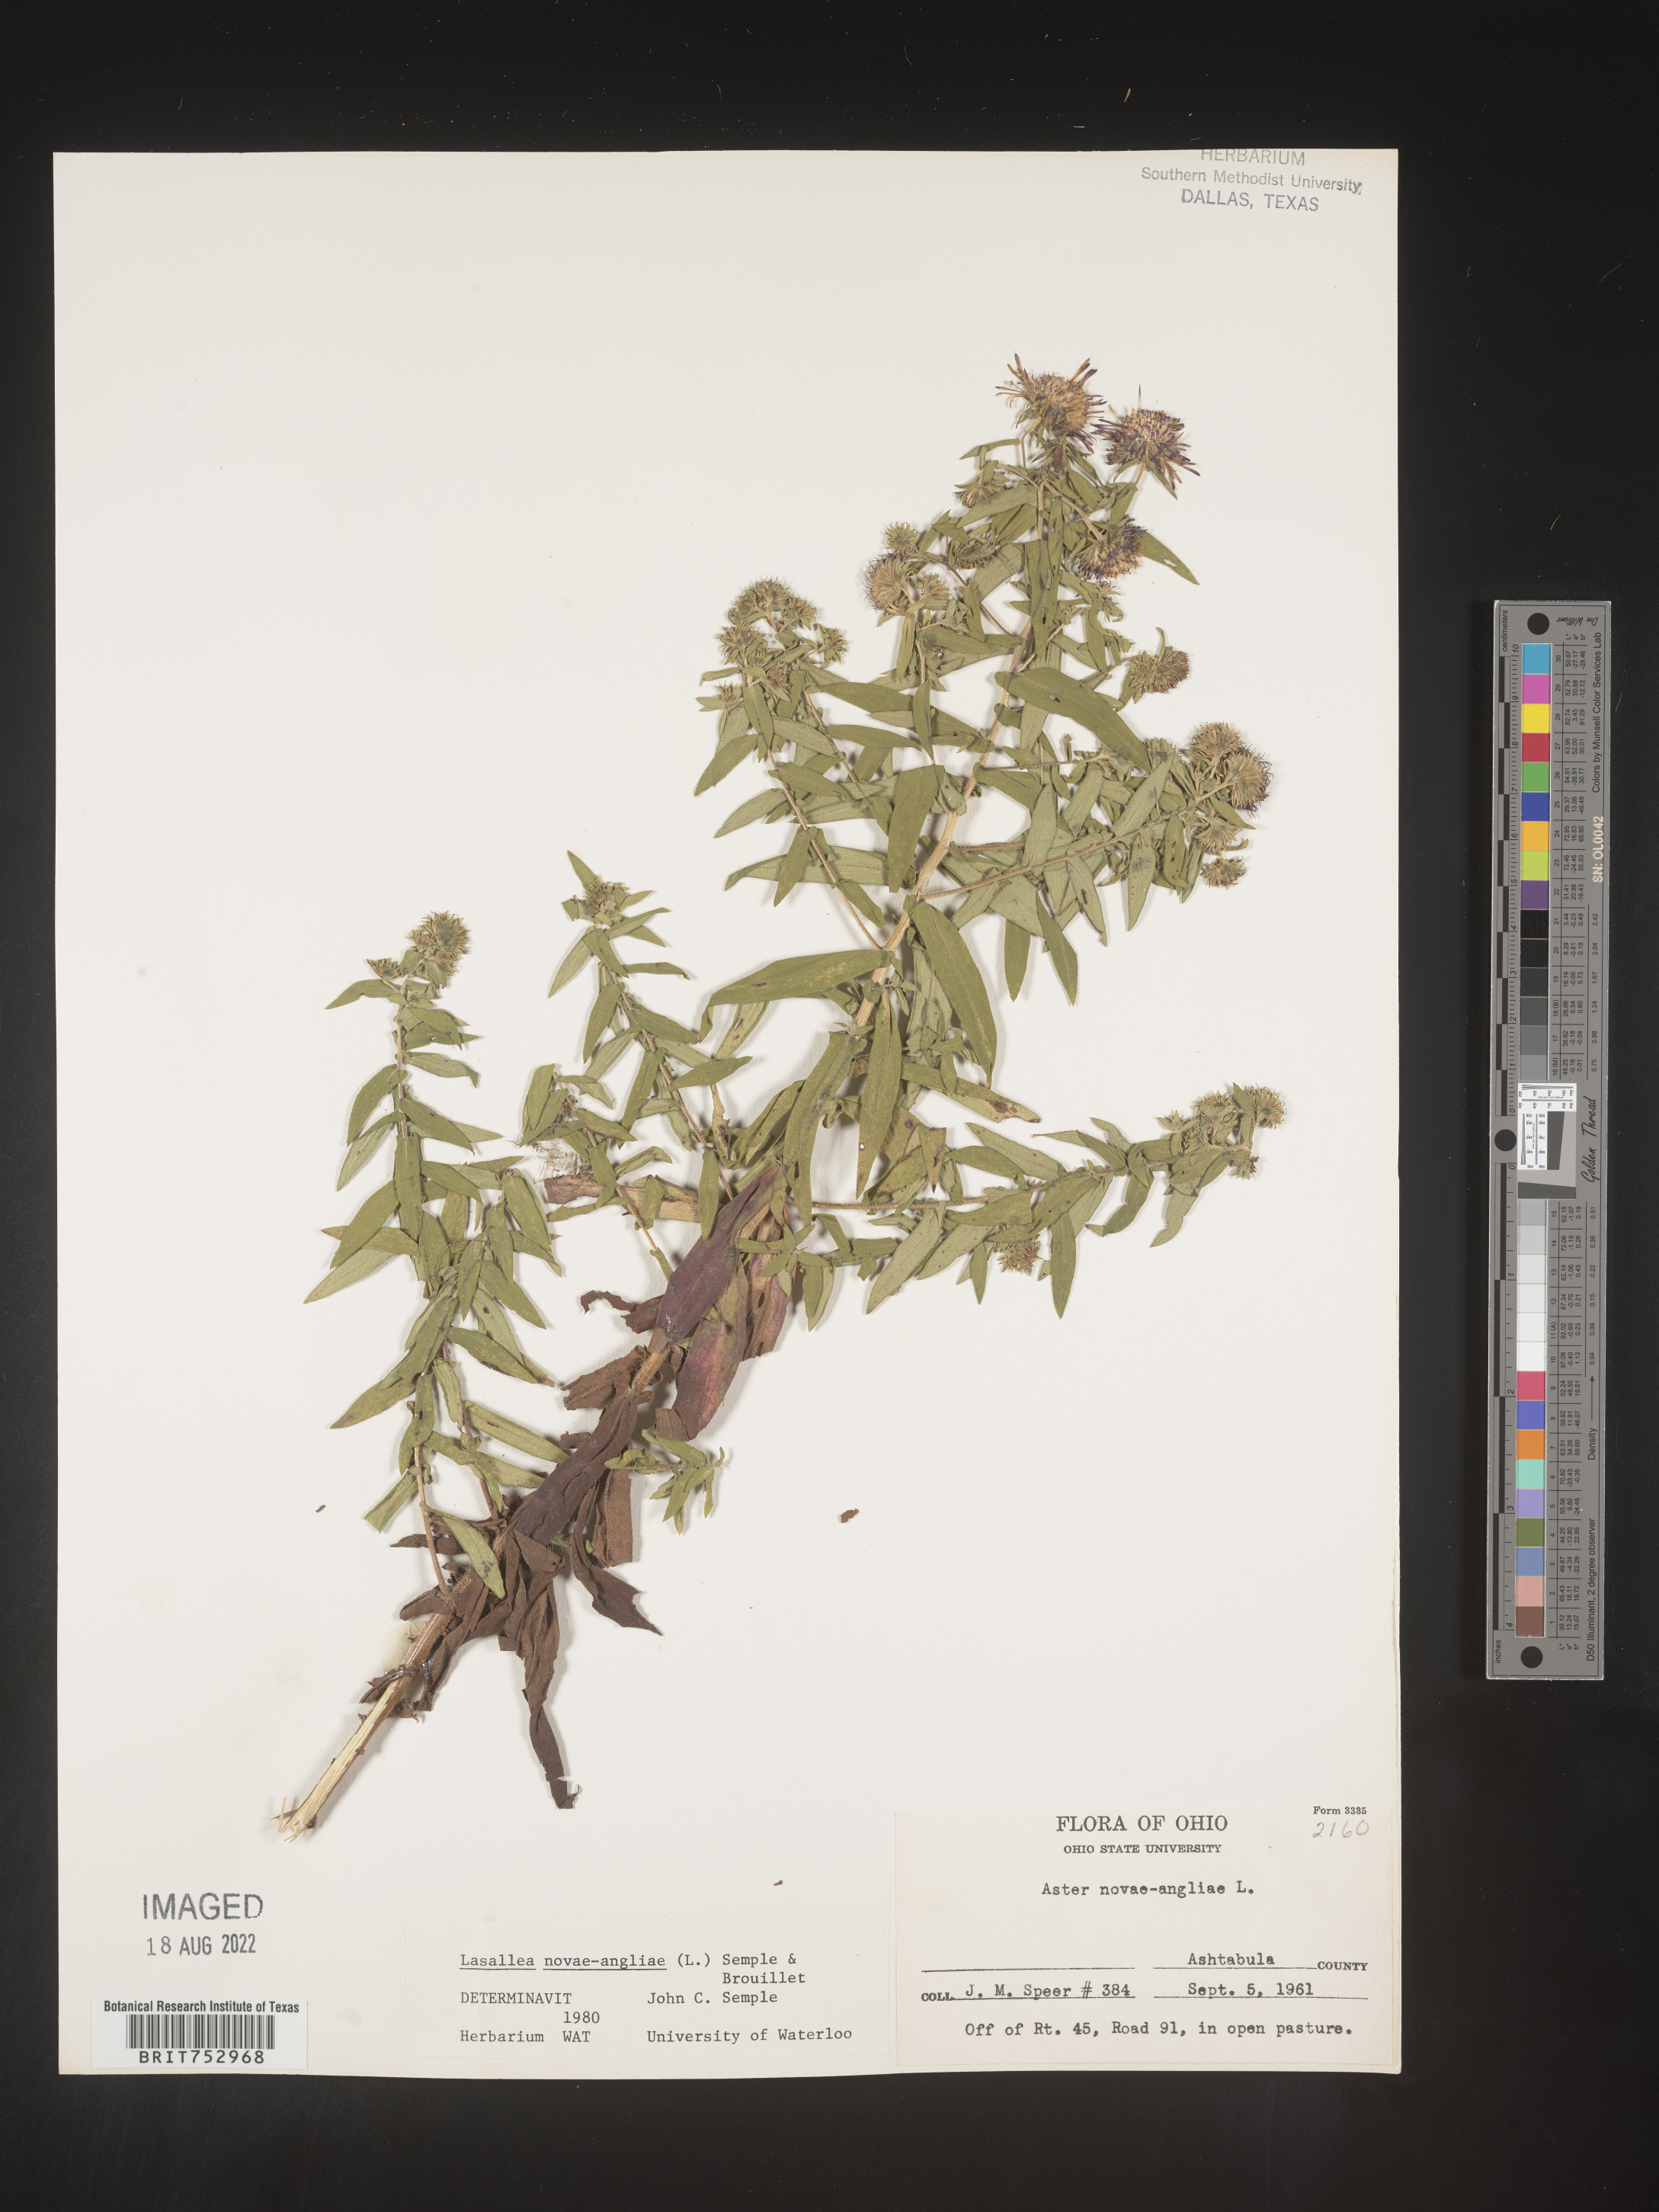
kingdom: Plantae
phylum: Tracheophyta
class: Magnoliopsida
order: Asterales
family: Asteraceae
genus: Symphyotrichum
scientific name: Symphyotrichum novae-angliae
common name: Michaelmas daisy
